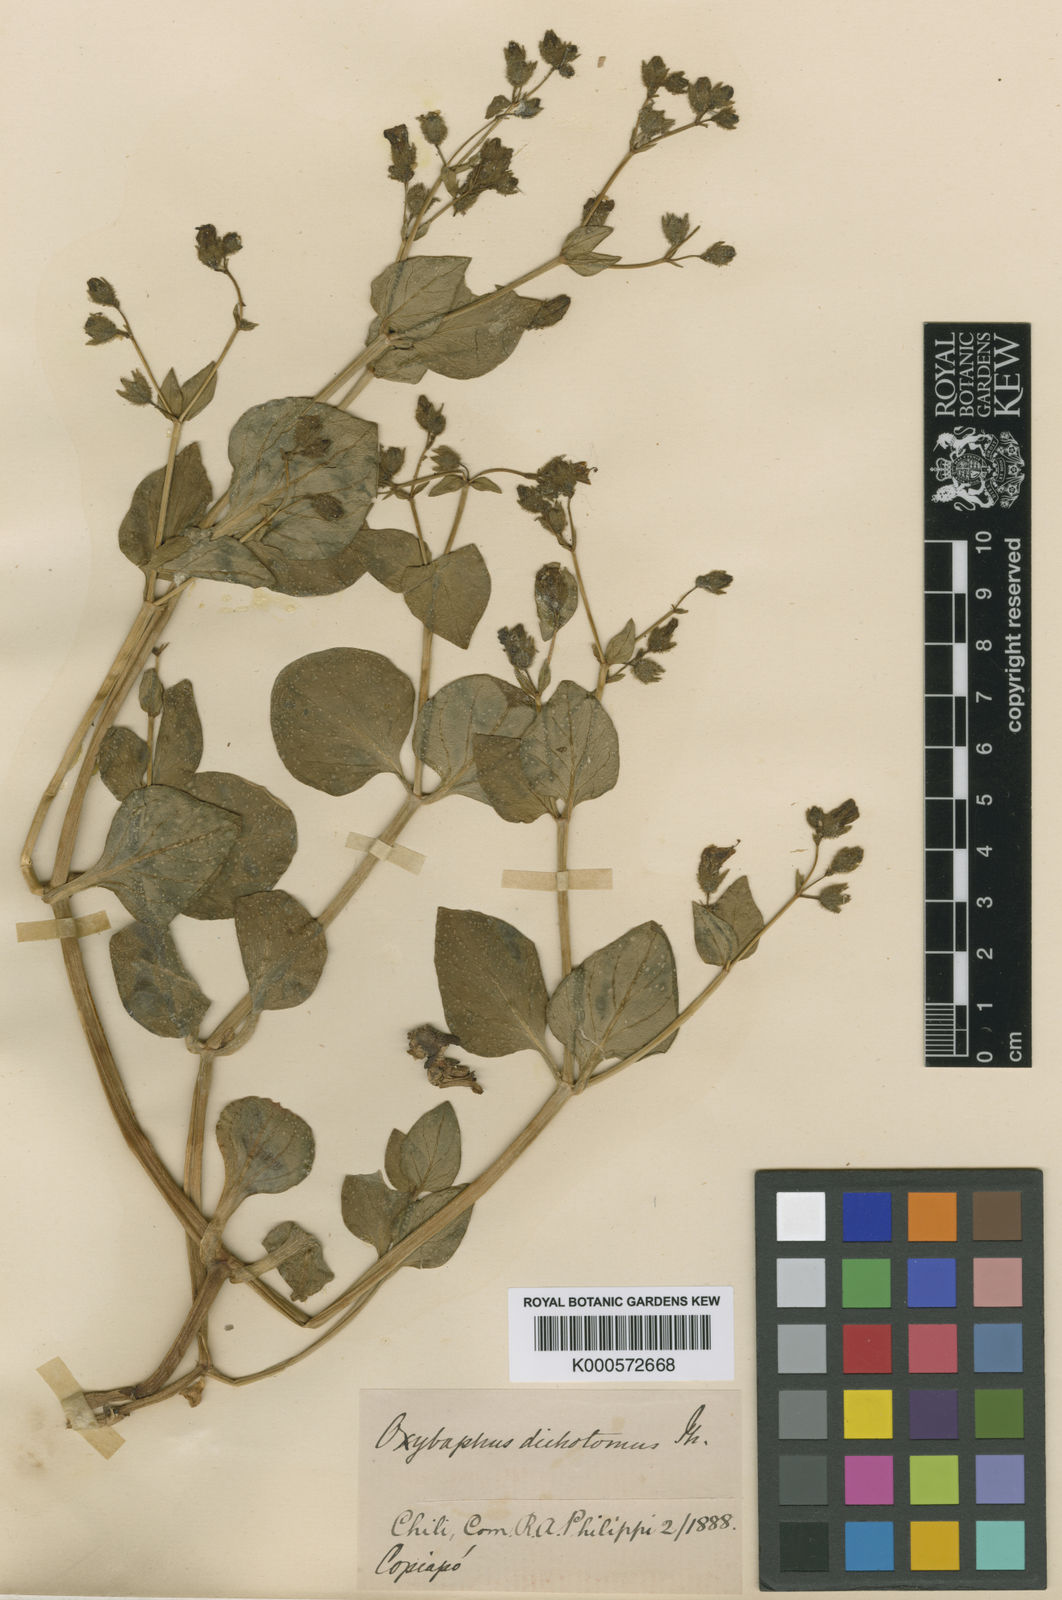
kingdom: Plantae
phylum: Tracheophyta
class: Magnoliopsida
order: Caryophyllales
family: Nyctaginaceae
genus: Mirabilis
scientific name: Mirabilis jalapa
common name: Marvel-of-peru
